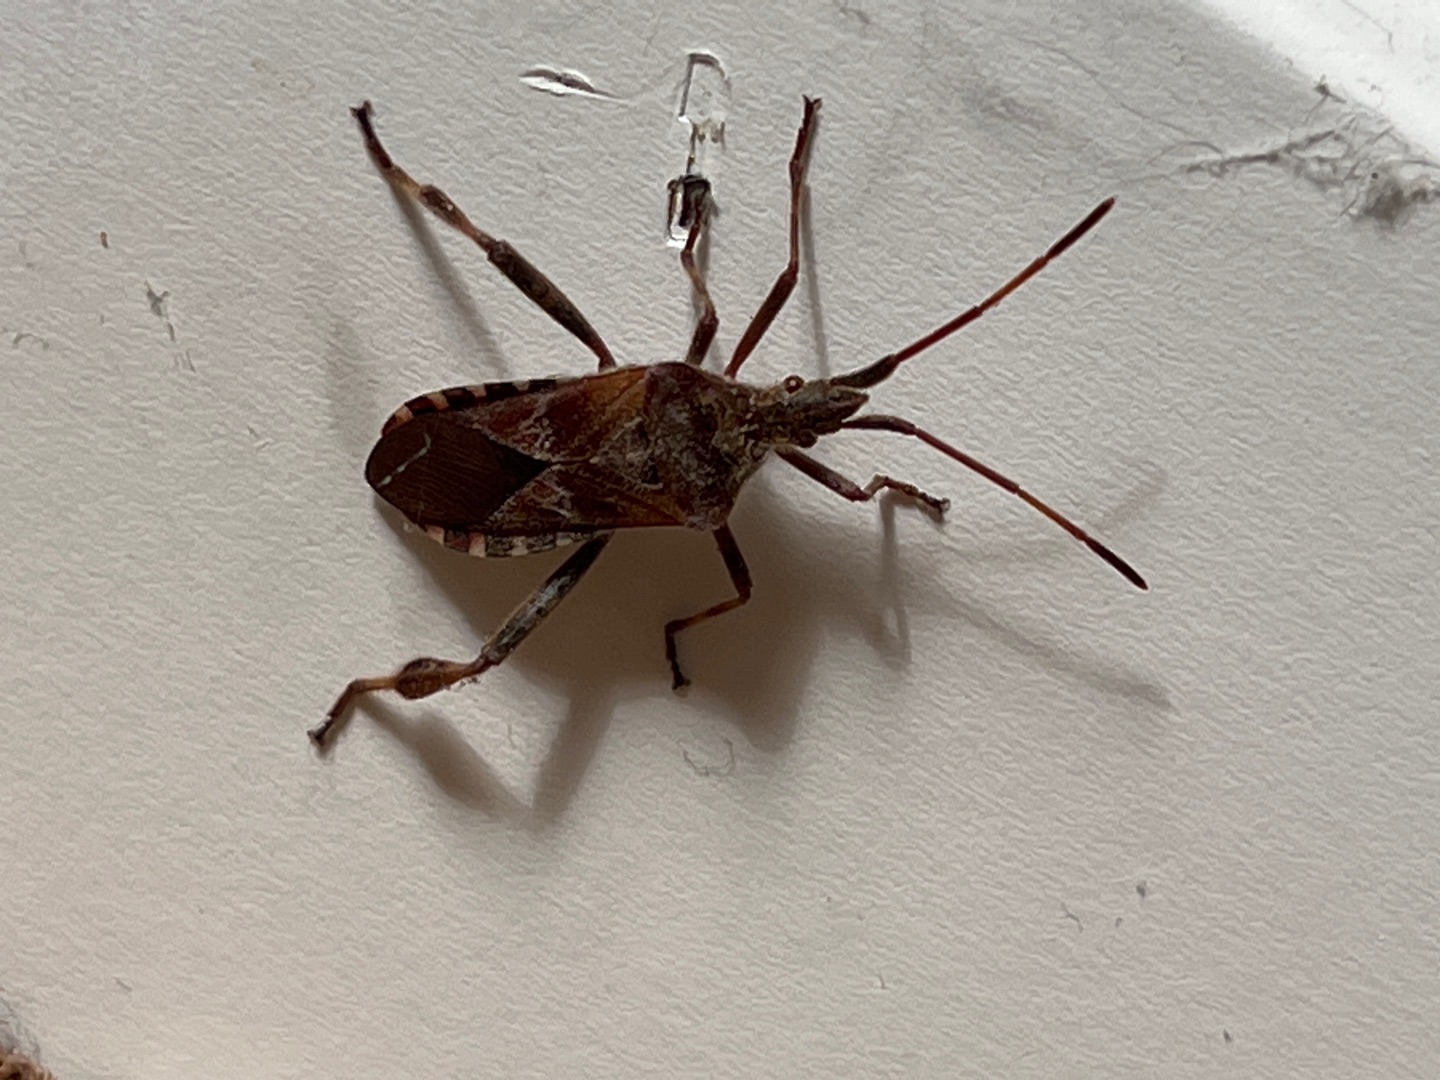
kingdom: Animalia
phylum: Arthropoda
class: Insecta
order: Hemiptera
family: Coreidae
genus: Leptoglossus
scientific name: Leptoglossus occidentalis
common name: Amerikansk fyrretæge
